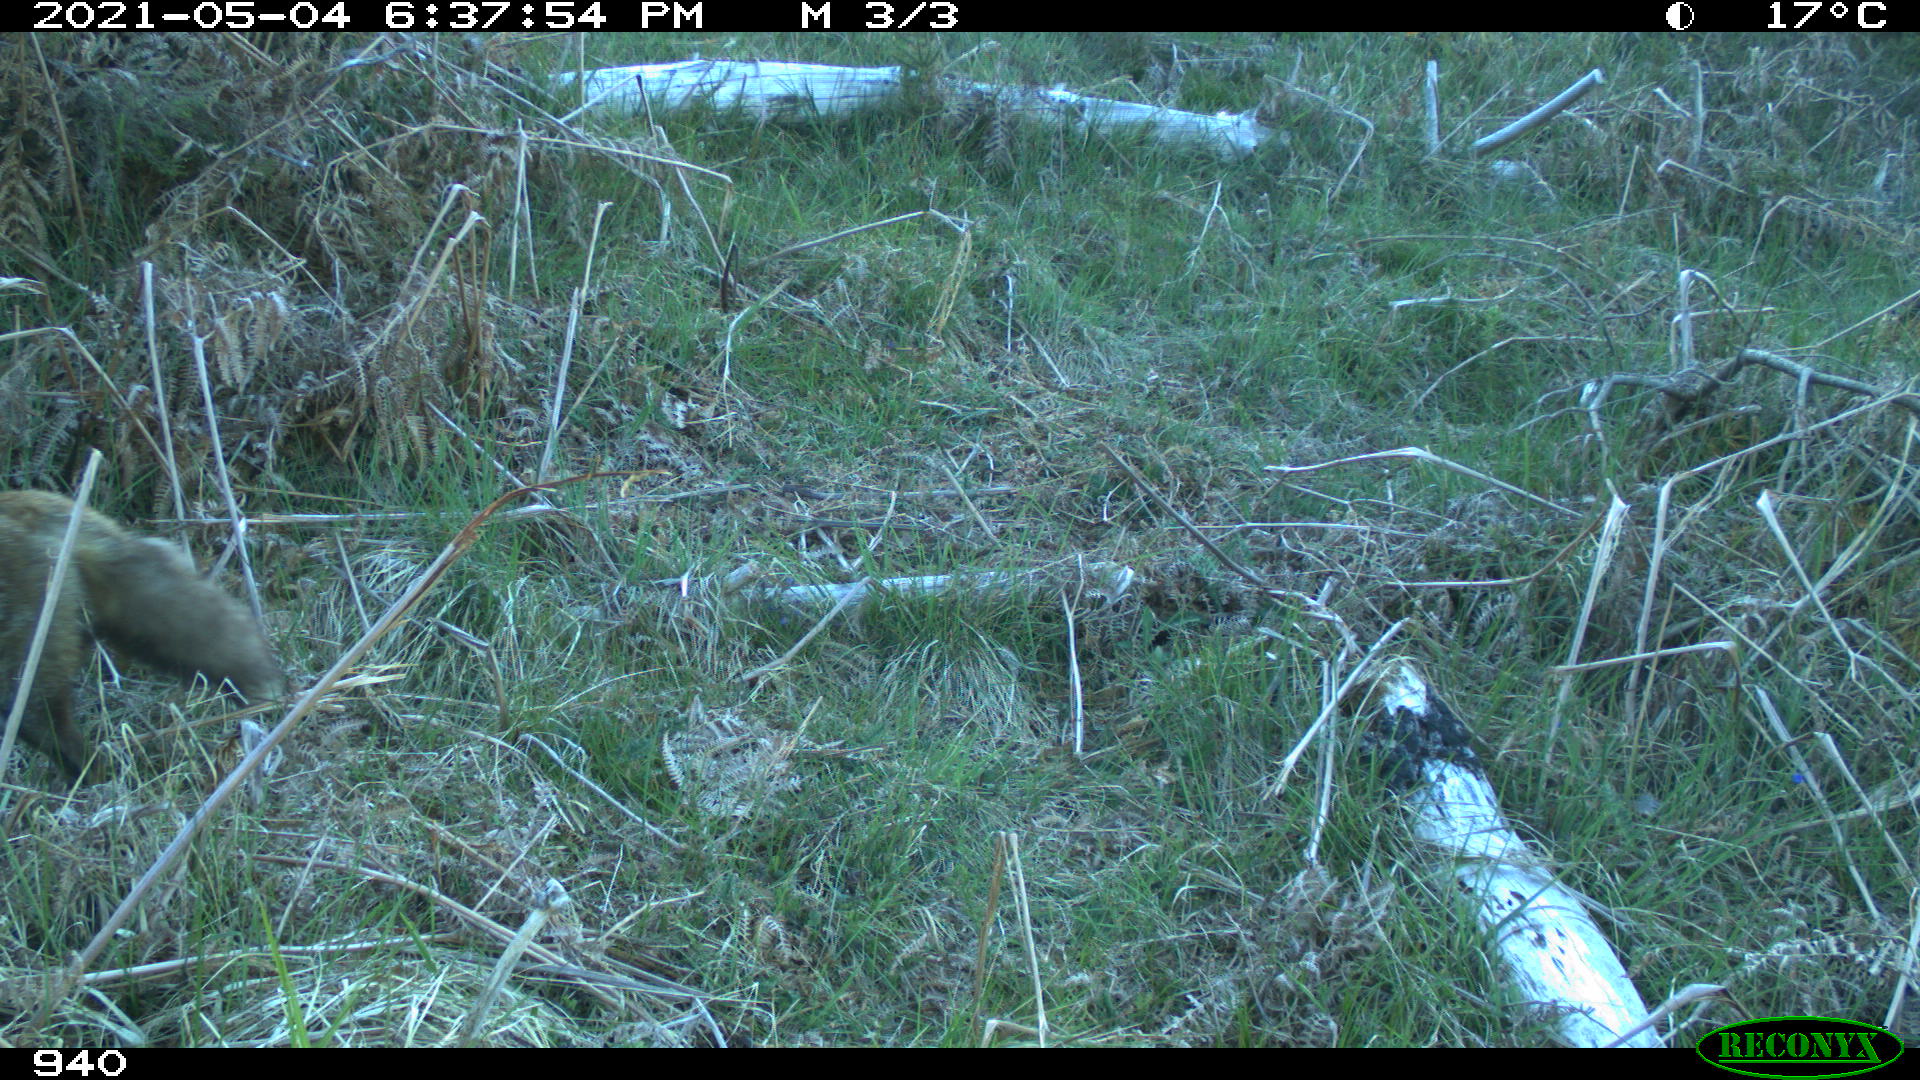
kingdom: Animalia
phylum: Chordata
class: Mammalia
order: Carnivora
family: Canidae
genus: Vulpes
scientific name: Vulpes vulpes
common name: Red fox
